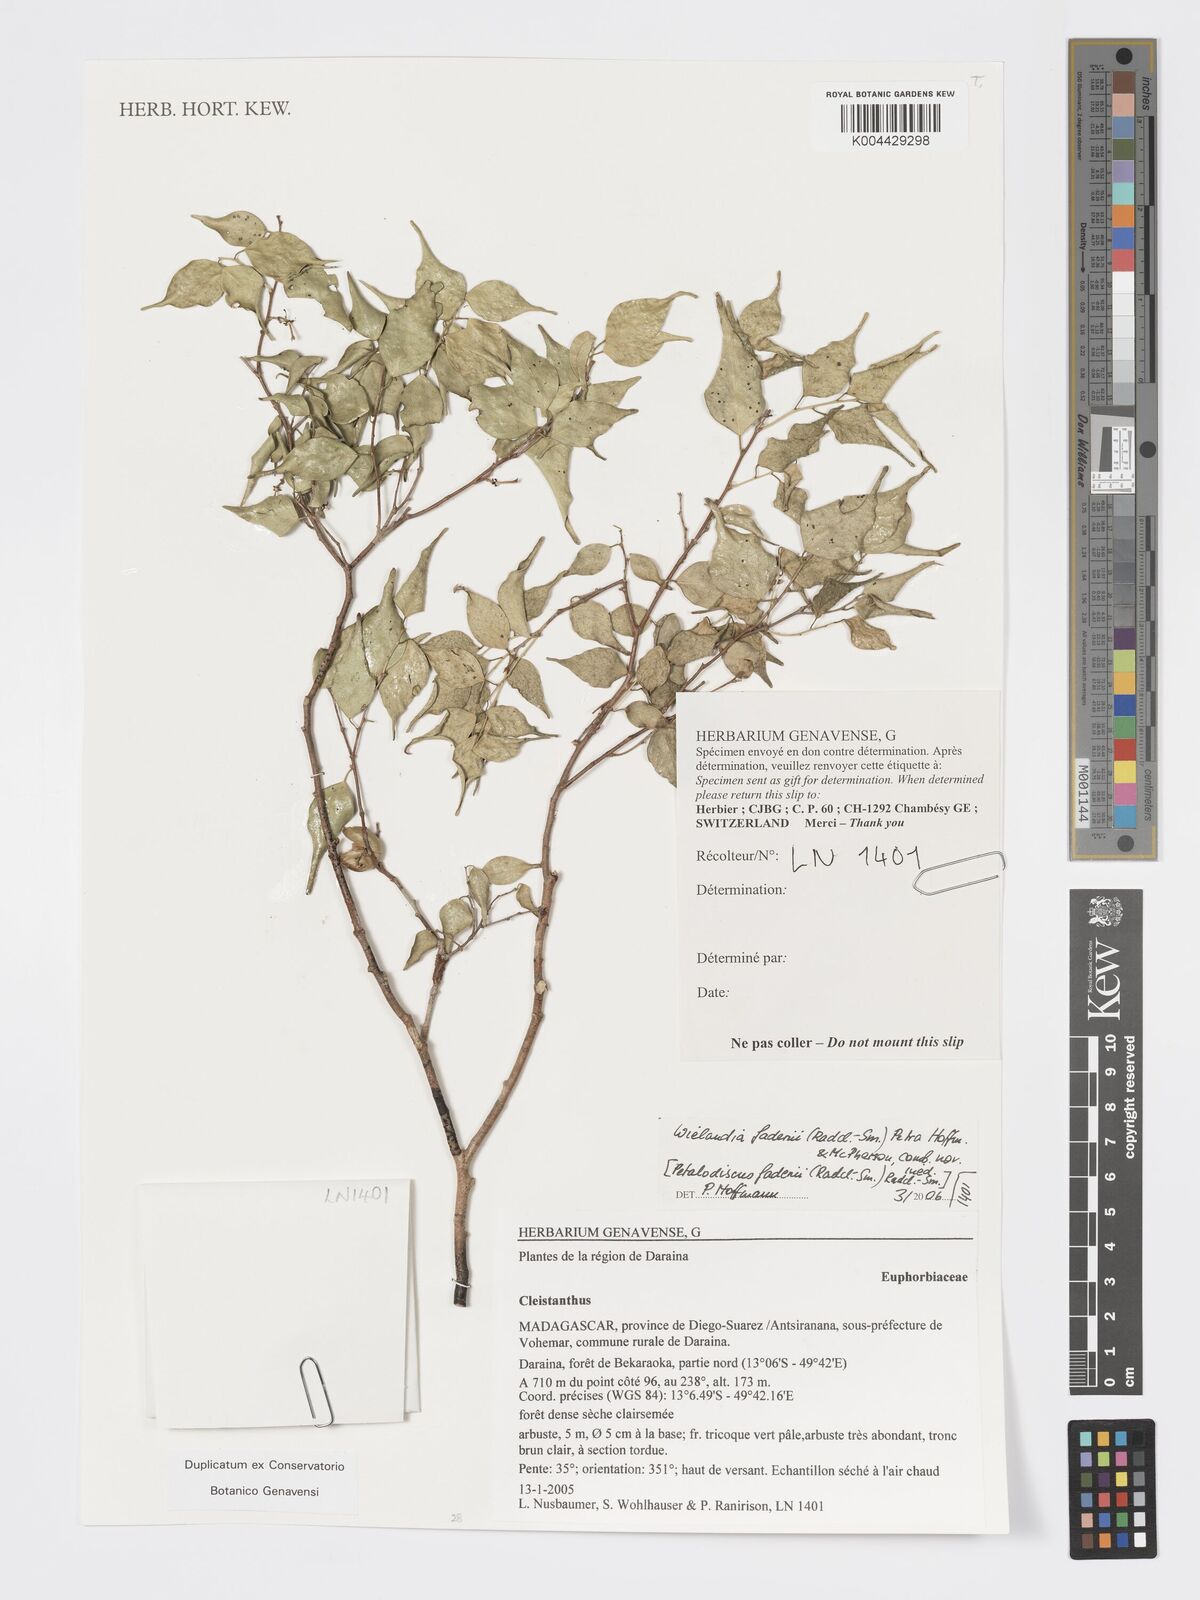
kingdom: Plantae
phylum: Tracheophyta
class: Magnoliopsida
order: Malpighiales
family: Phyllanthaceae
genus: Wielandia
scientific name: Wielandia fadenii
